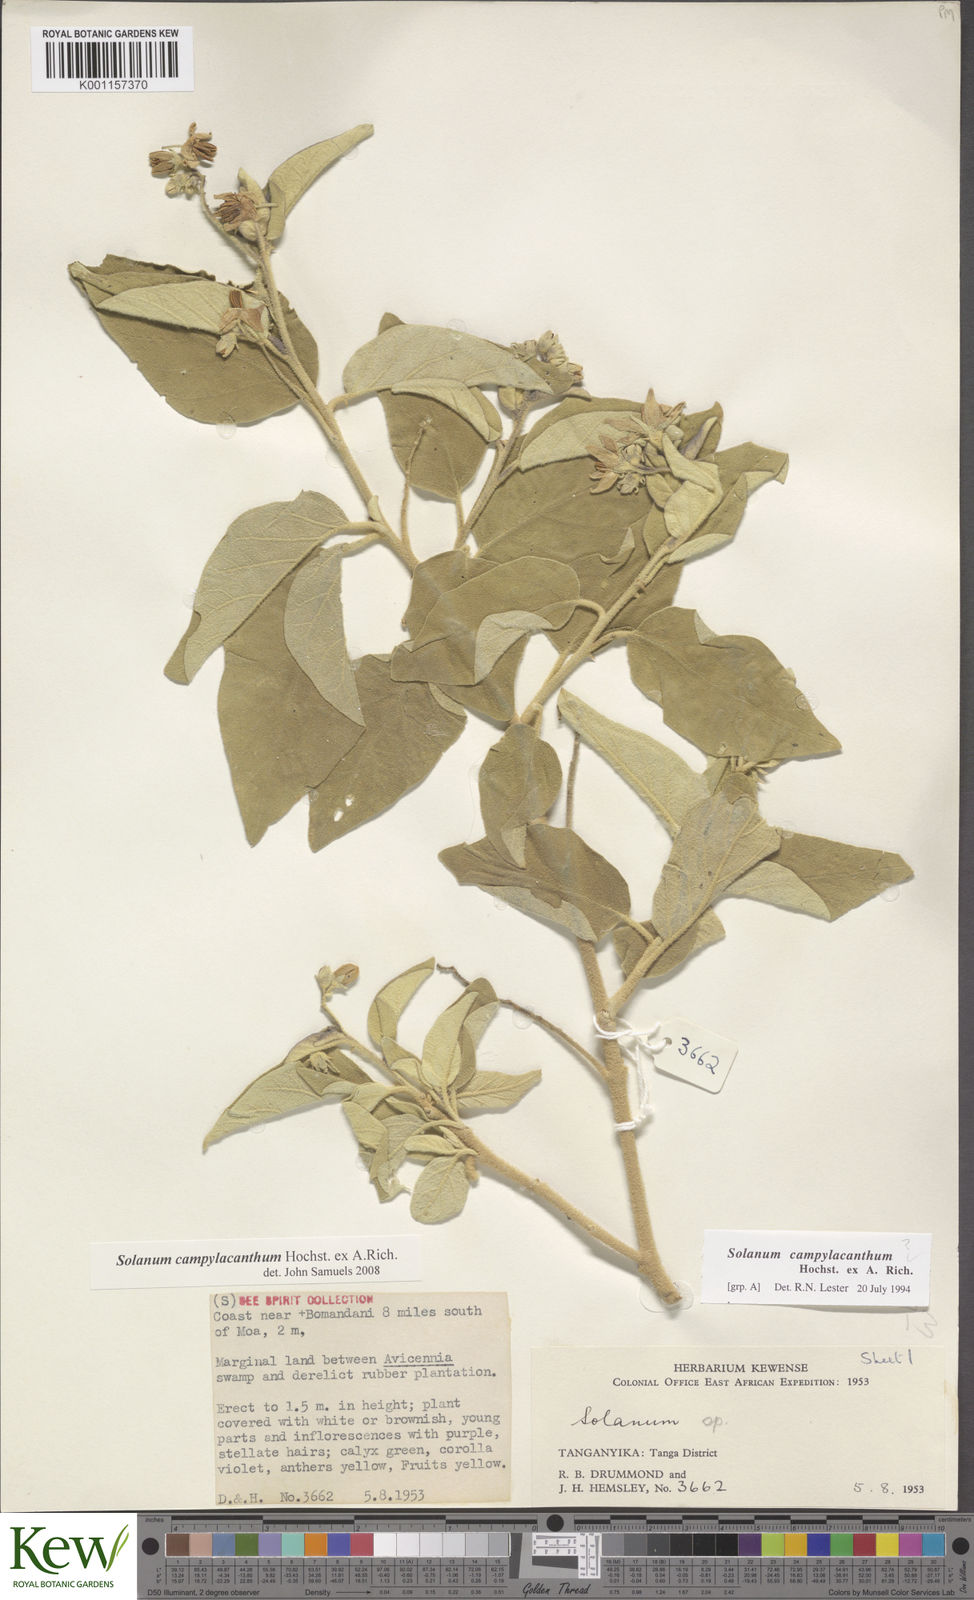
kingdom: Plantae
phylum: Tracheophyta
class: Magnoliopsida
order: Solanales
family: Solanaceae
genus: Solanum
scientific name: Solanum campylacanthum
